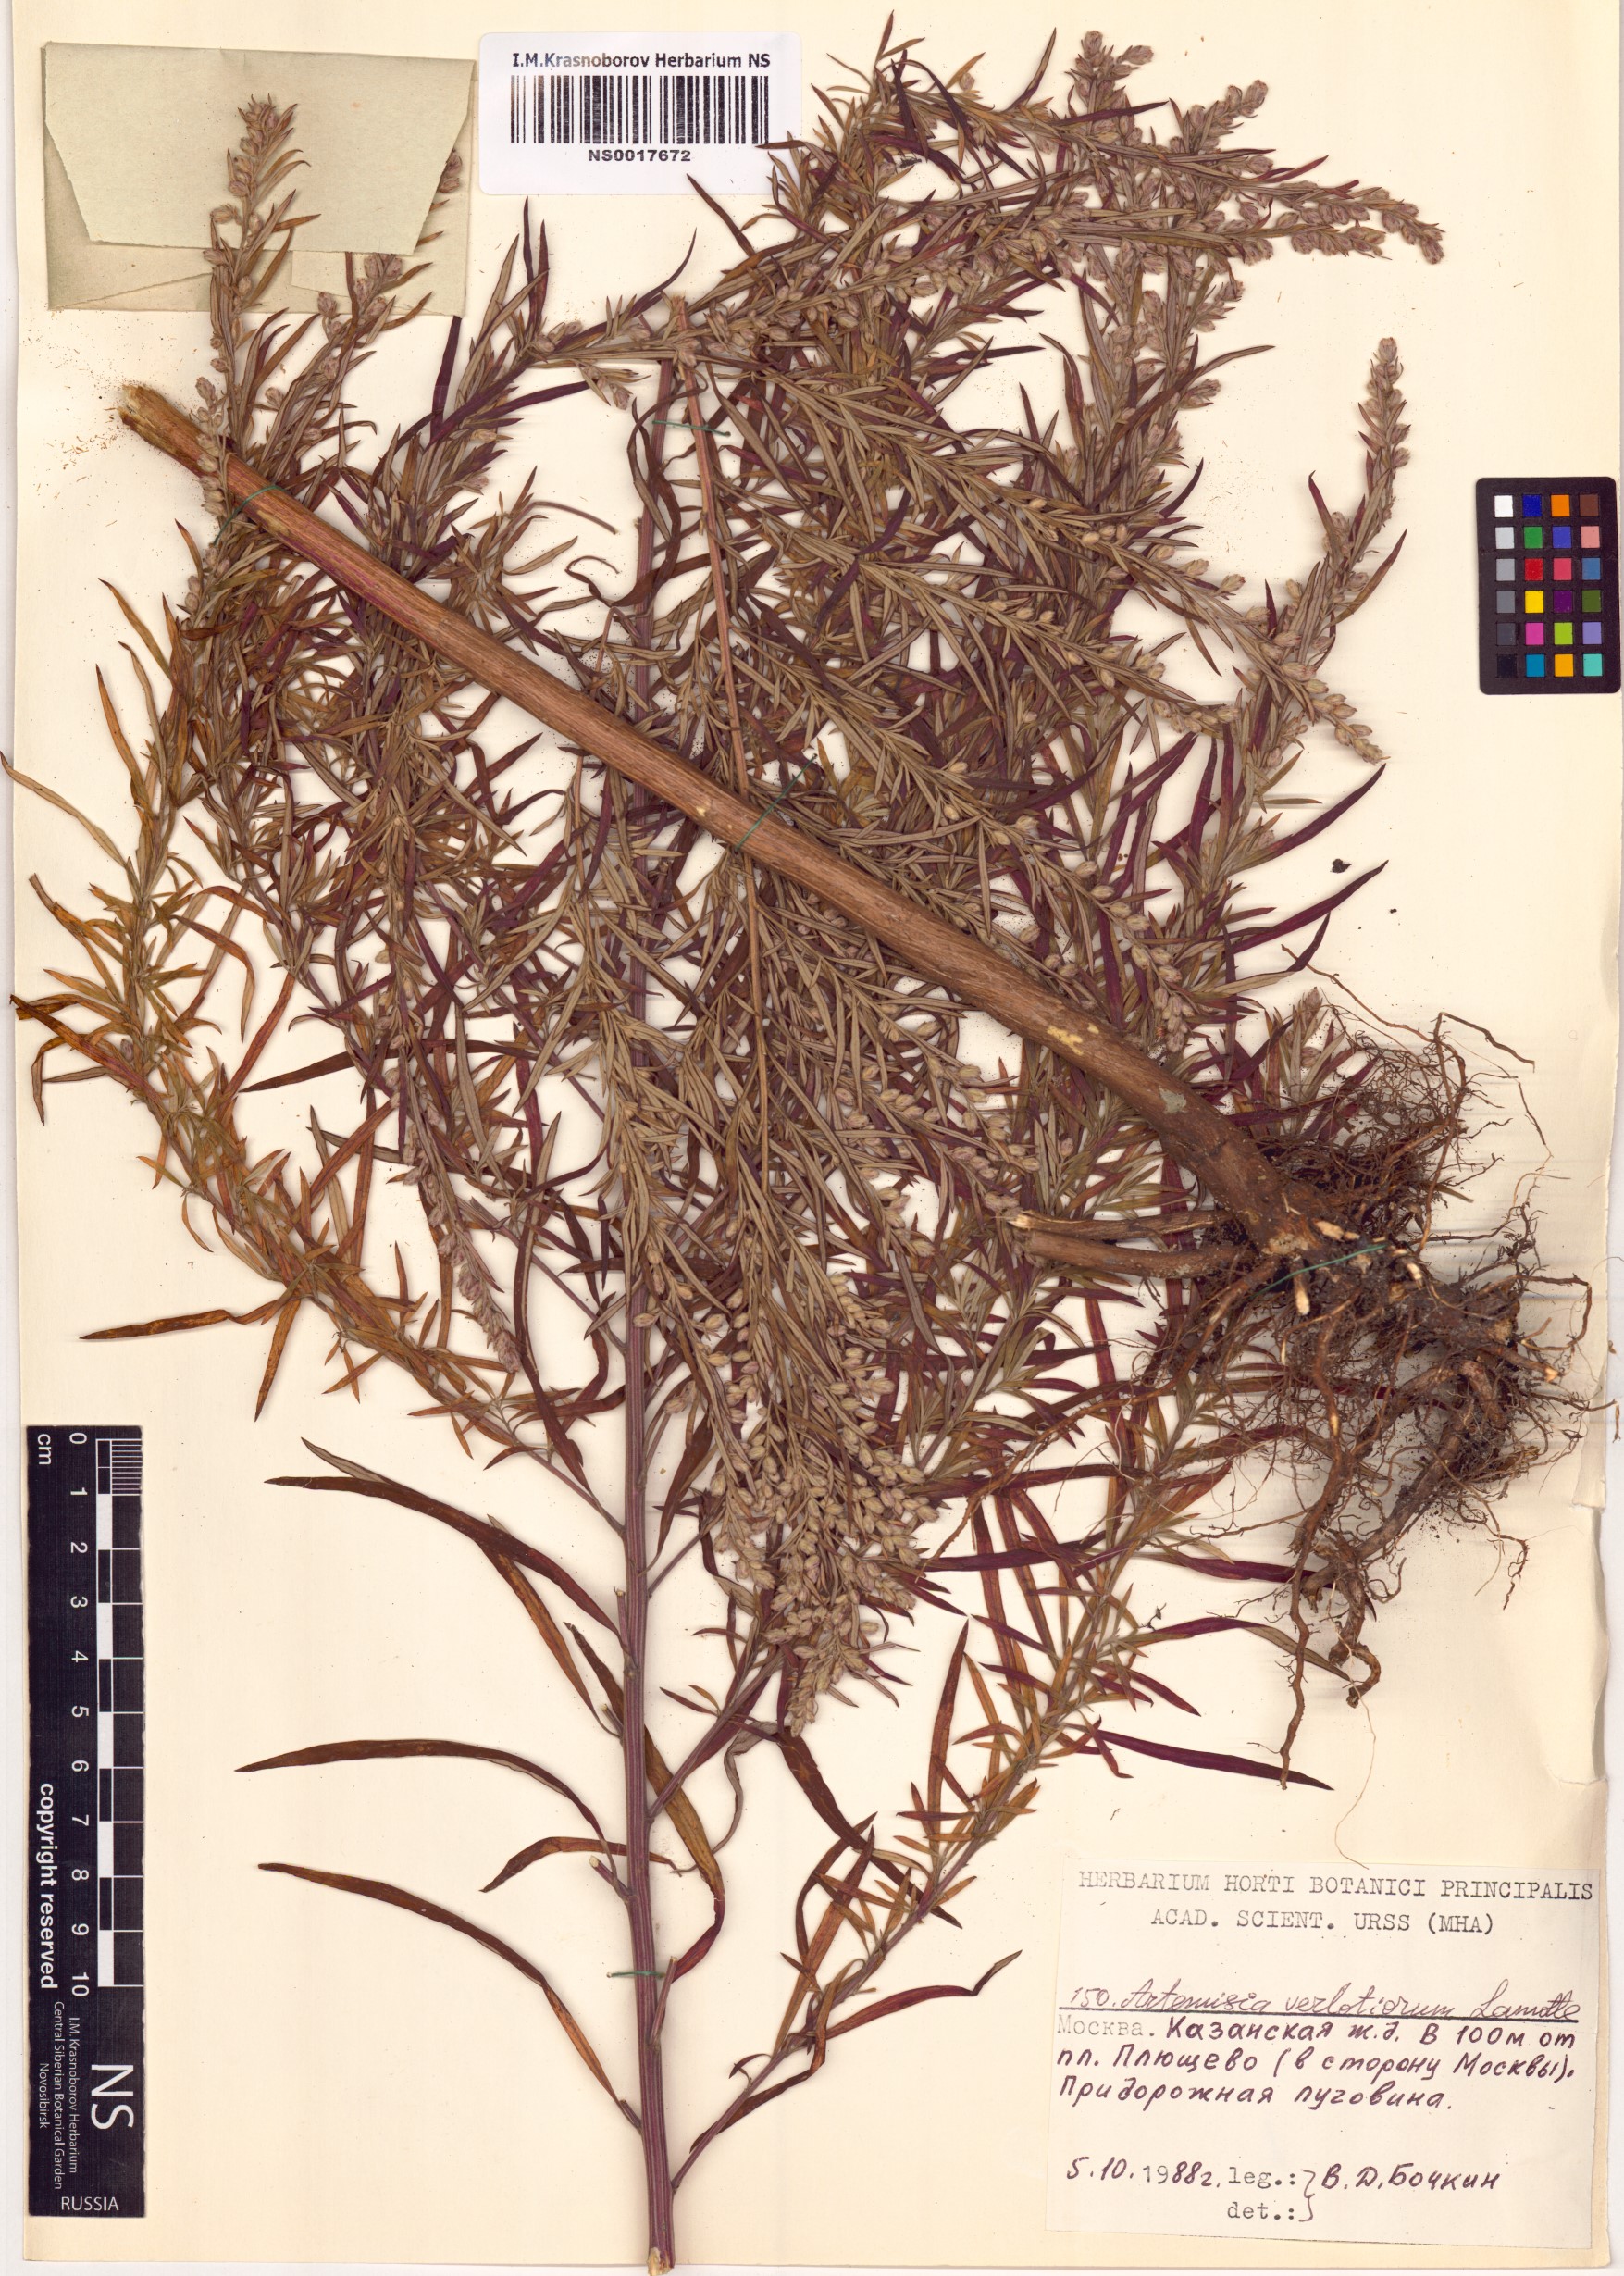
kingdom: Plantae
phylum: Tracheophyta
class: Magnoliopsida
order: Asterales
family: Asteraceae
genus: Artemisia
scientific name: Artemisia verlotiorum
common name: Chinese mugwort
